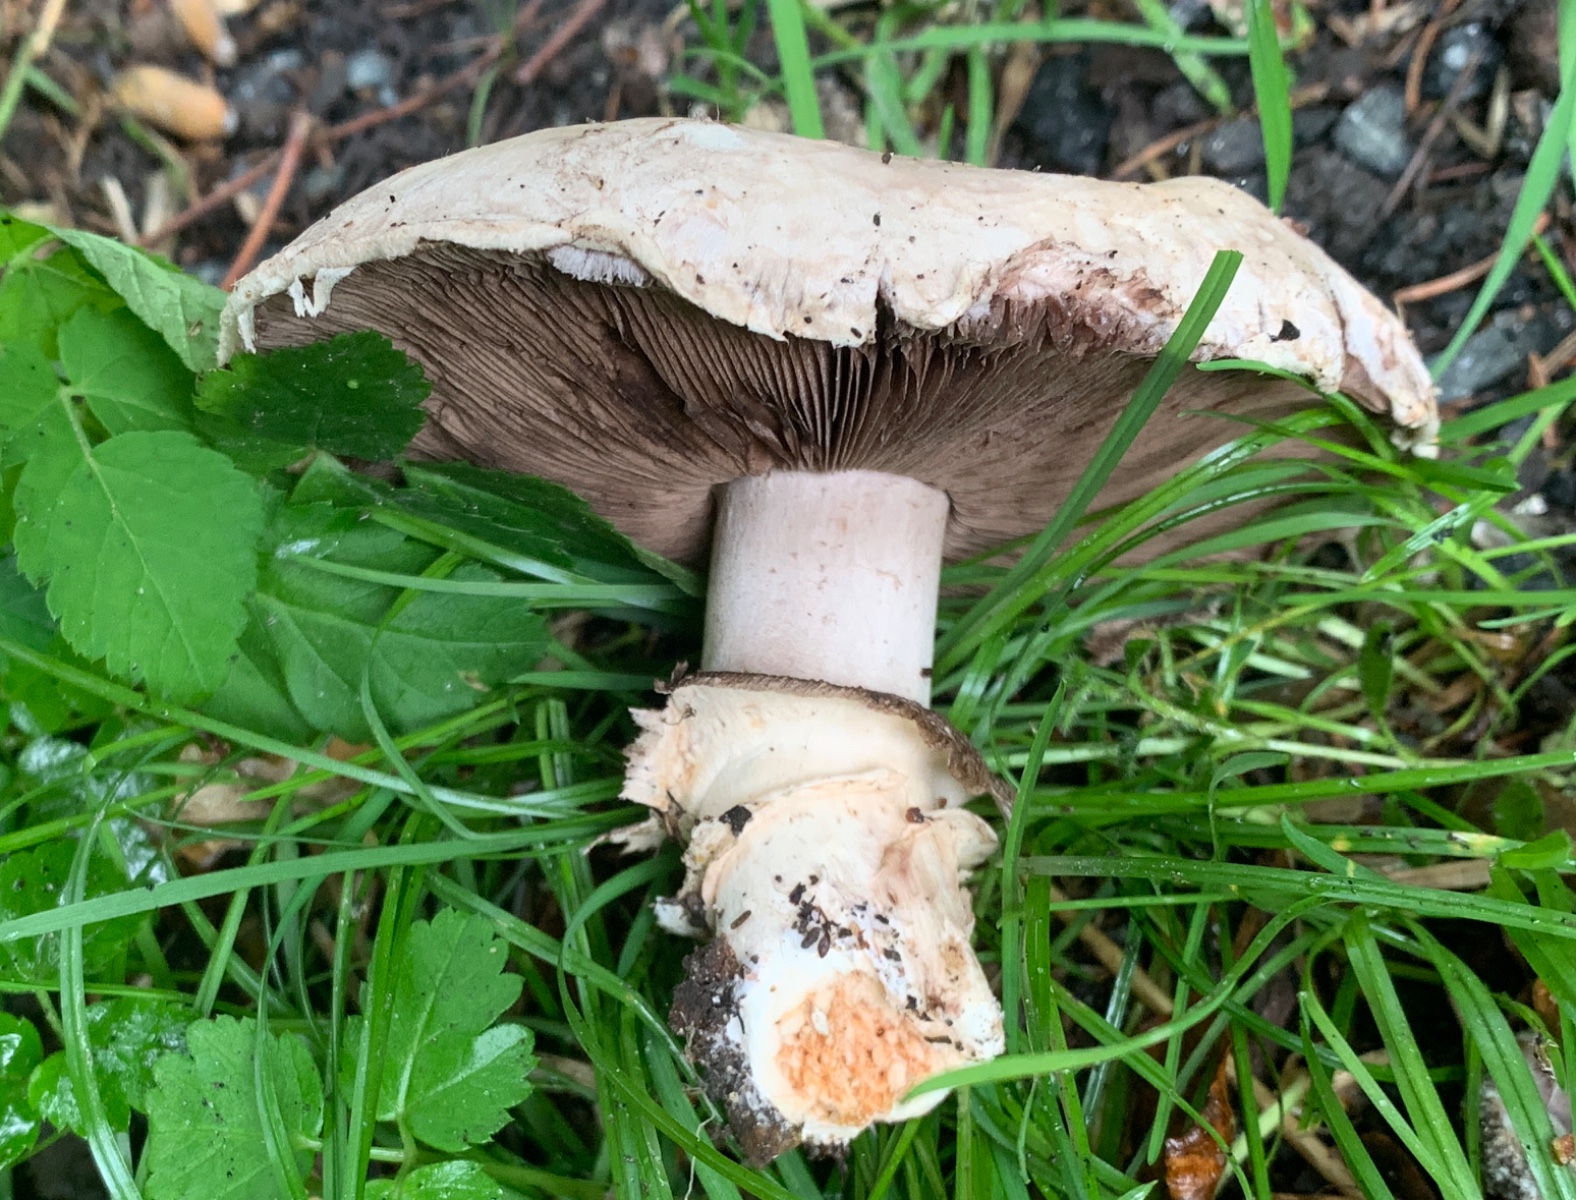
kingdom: Fungi
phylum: Basidiomycota
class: Agaricomycetes
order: Agaricales
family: Agaricaceae
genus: Agaricus
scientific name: Agaricus bitorquis
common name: vej-champignon
